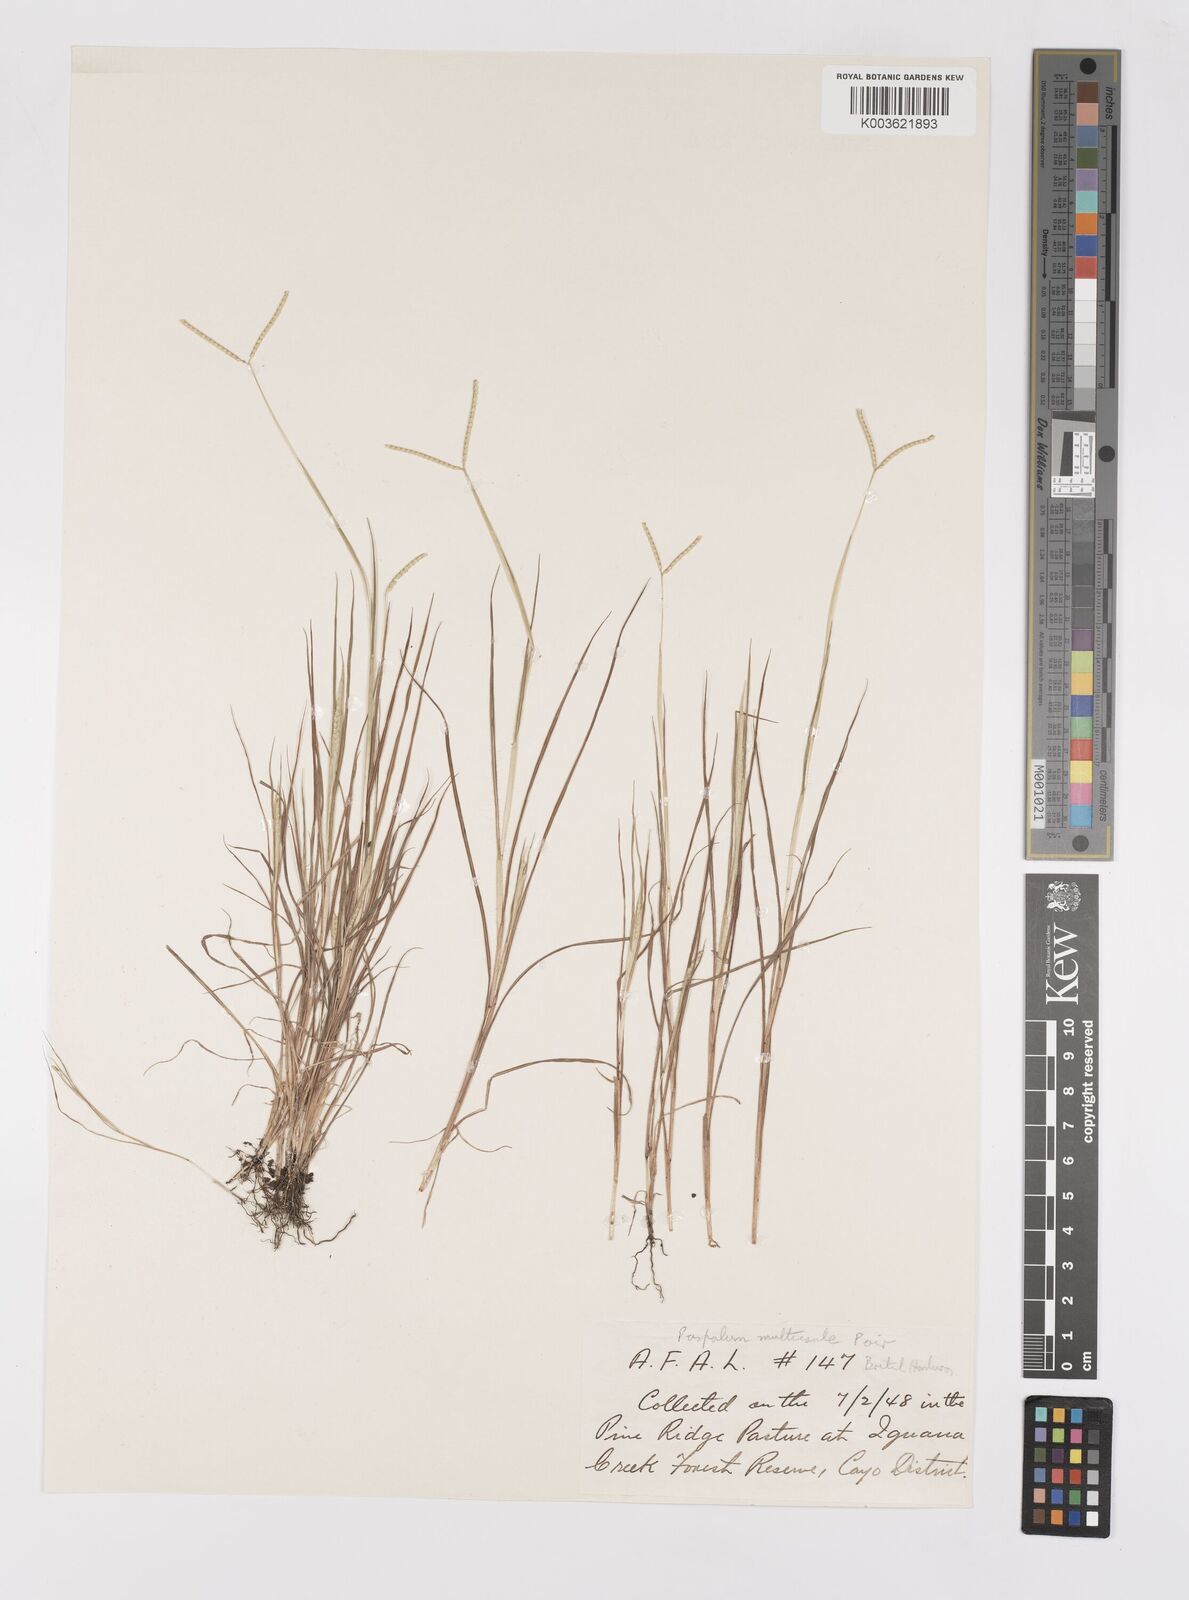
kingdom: Plantae
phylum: Tracheophyta
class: Liliopsida
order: Poales
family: Poaceae
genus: Paspalum
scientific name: Paspalum multicaule
